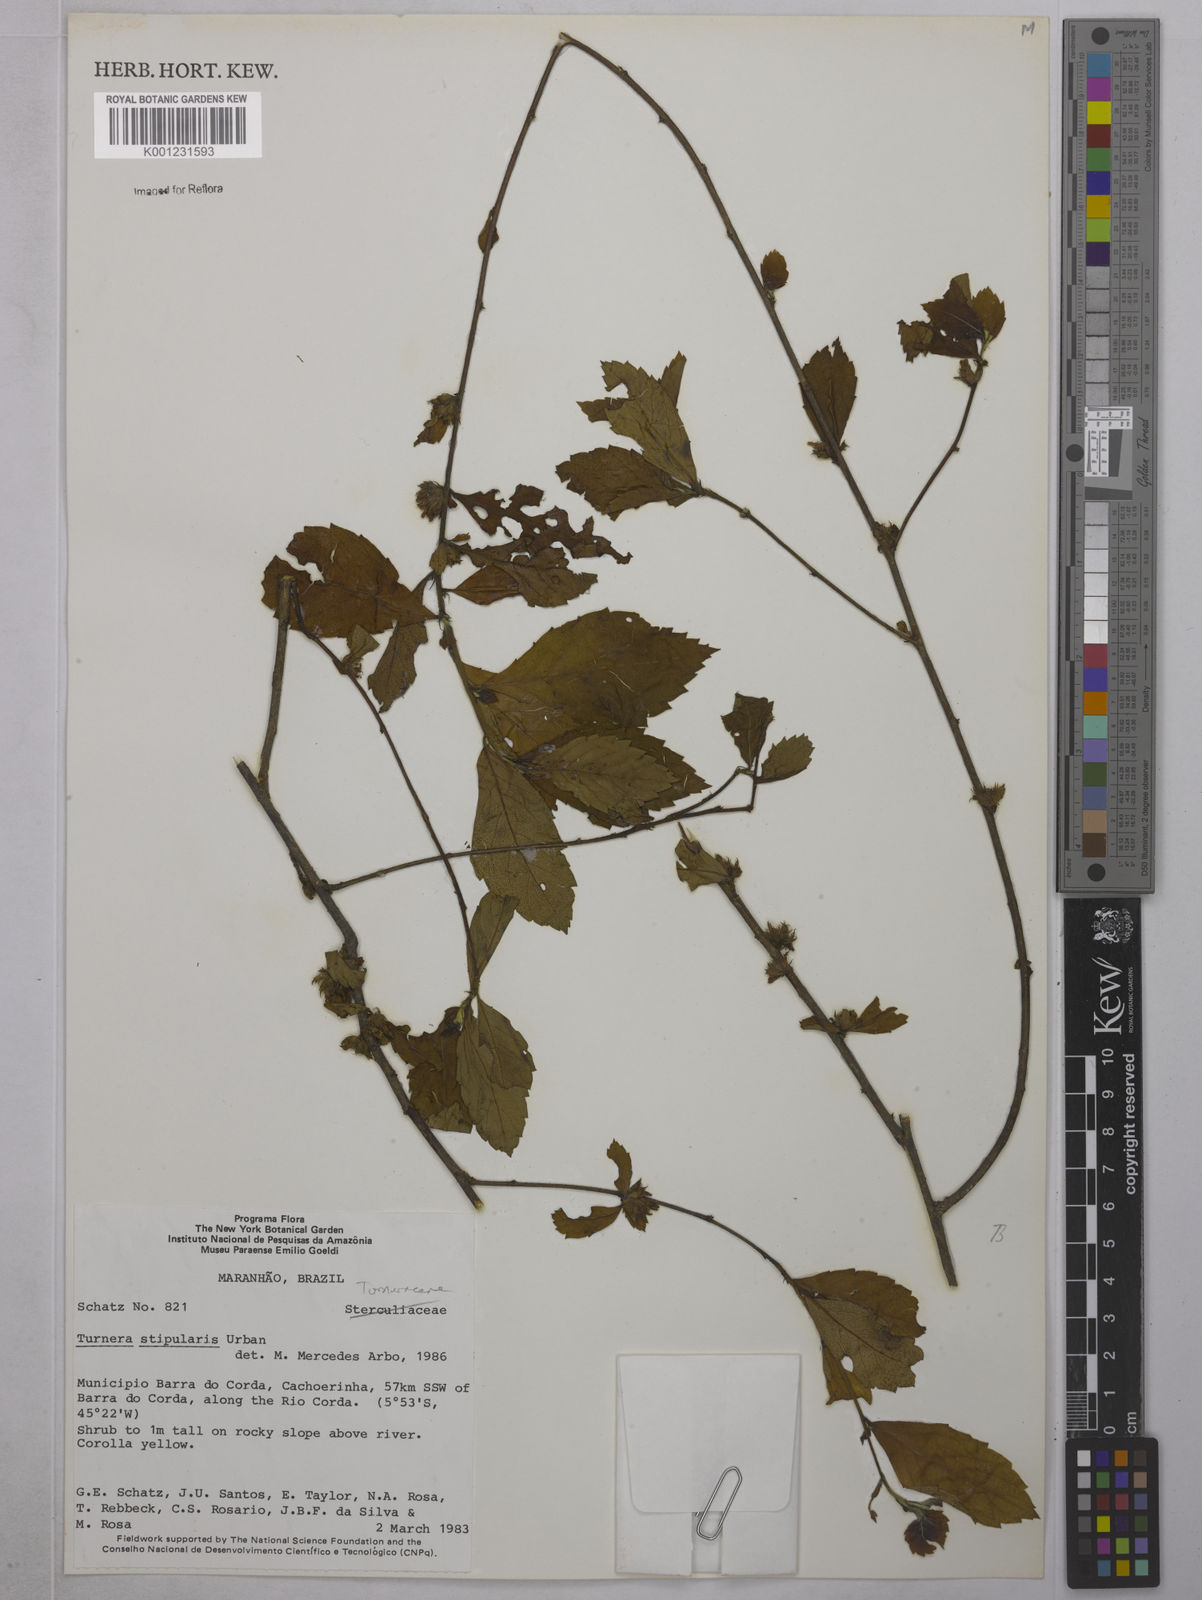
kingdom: Plantae
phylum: Tracheophyta
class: Magnoliopsida
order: Malpighiales
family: Turneraceae
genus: Turnera
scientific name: Turnera stipularis
